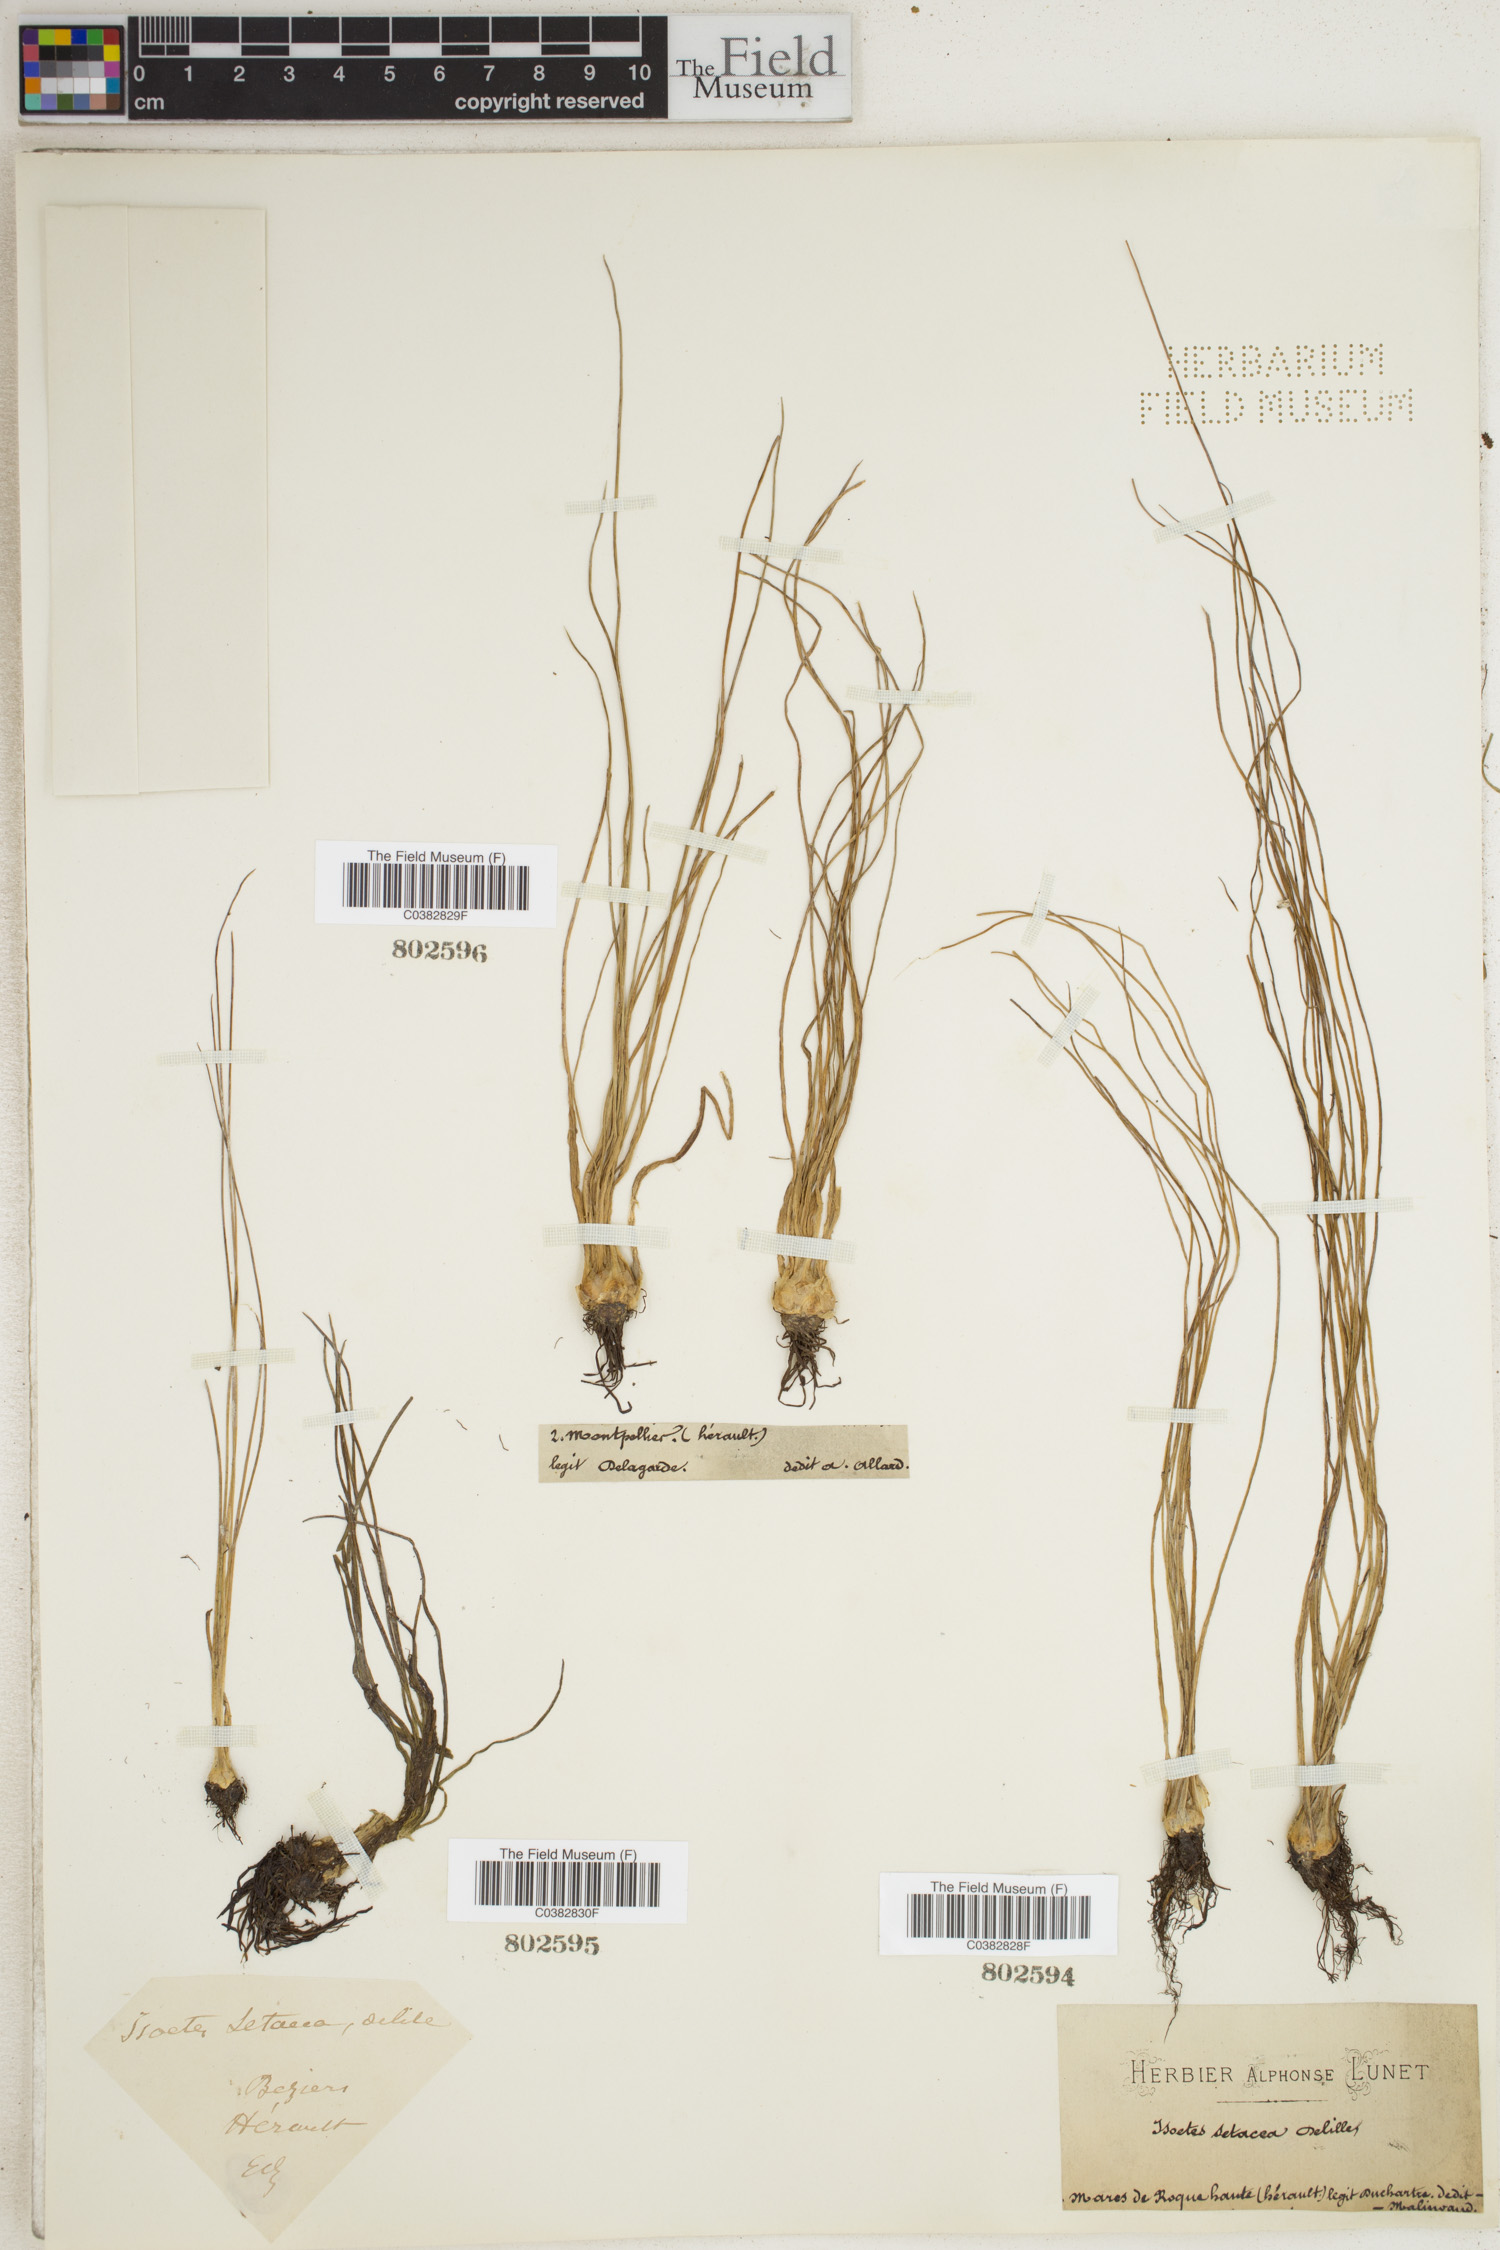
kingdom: Plantae
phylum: Tracheophyta
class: Lycopodiopsida
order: Isoetales
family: Isoetaceae
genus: Isoetes
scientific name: Isoetes lacustris
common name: Common quillwort
